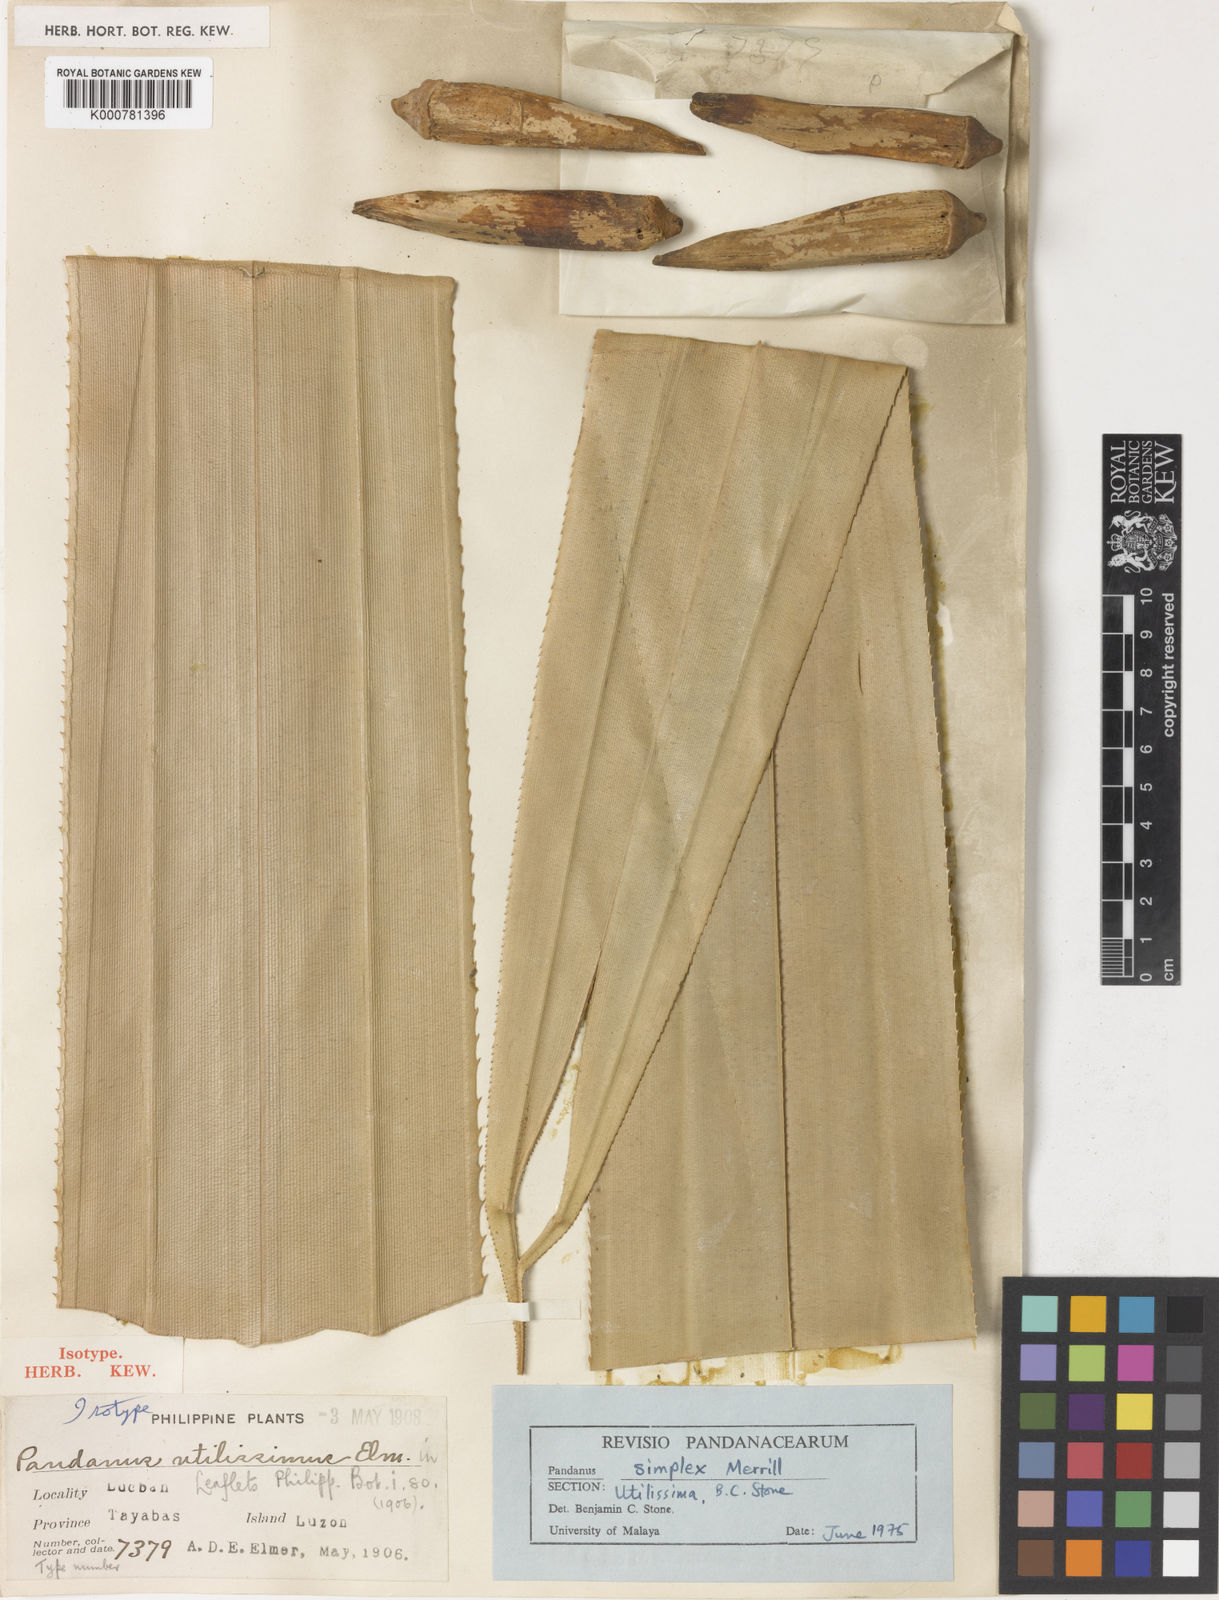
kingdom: Plantae
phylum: Tracheophyta
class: Liliopsida
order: Pandanales
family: Pandanaceae
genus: Pandanus
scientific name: Pandanus simplex
